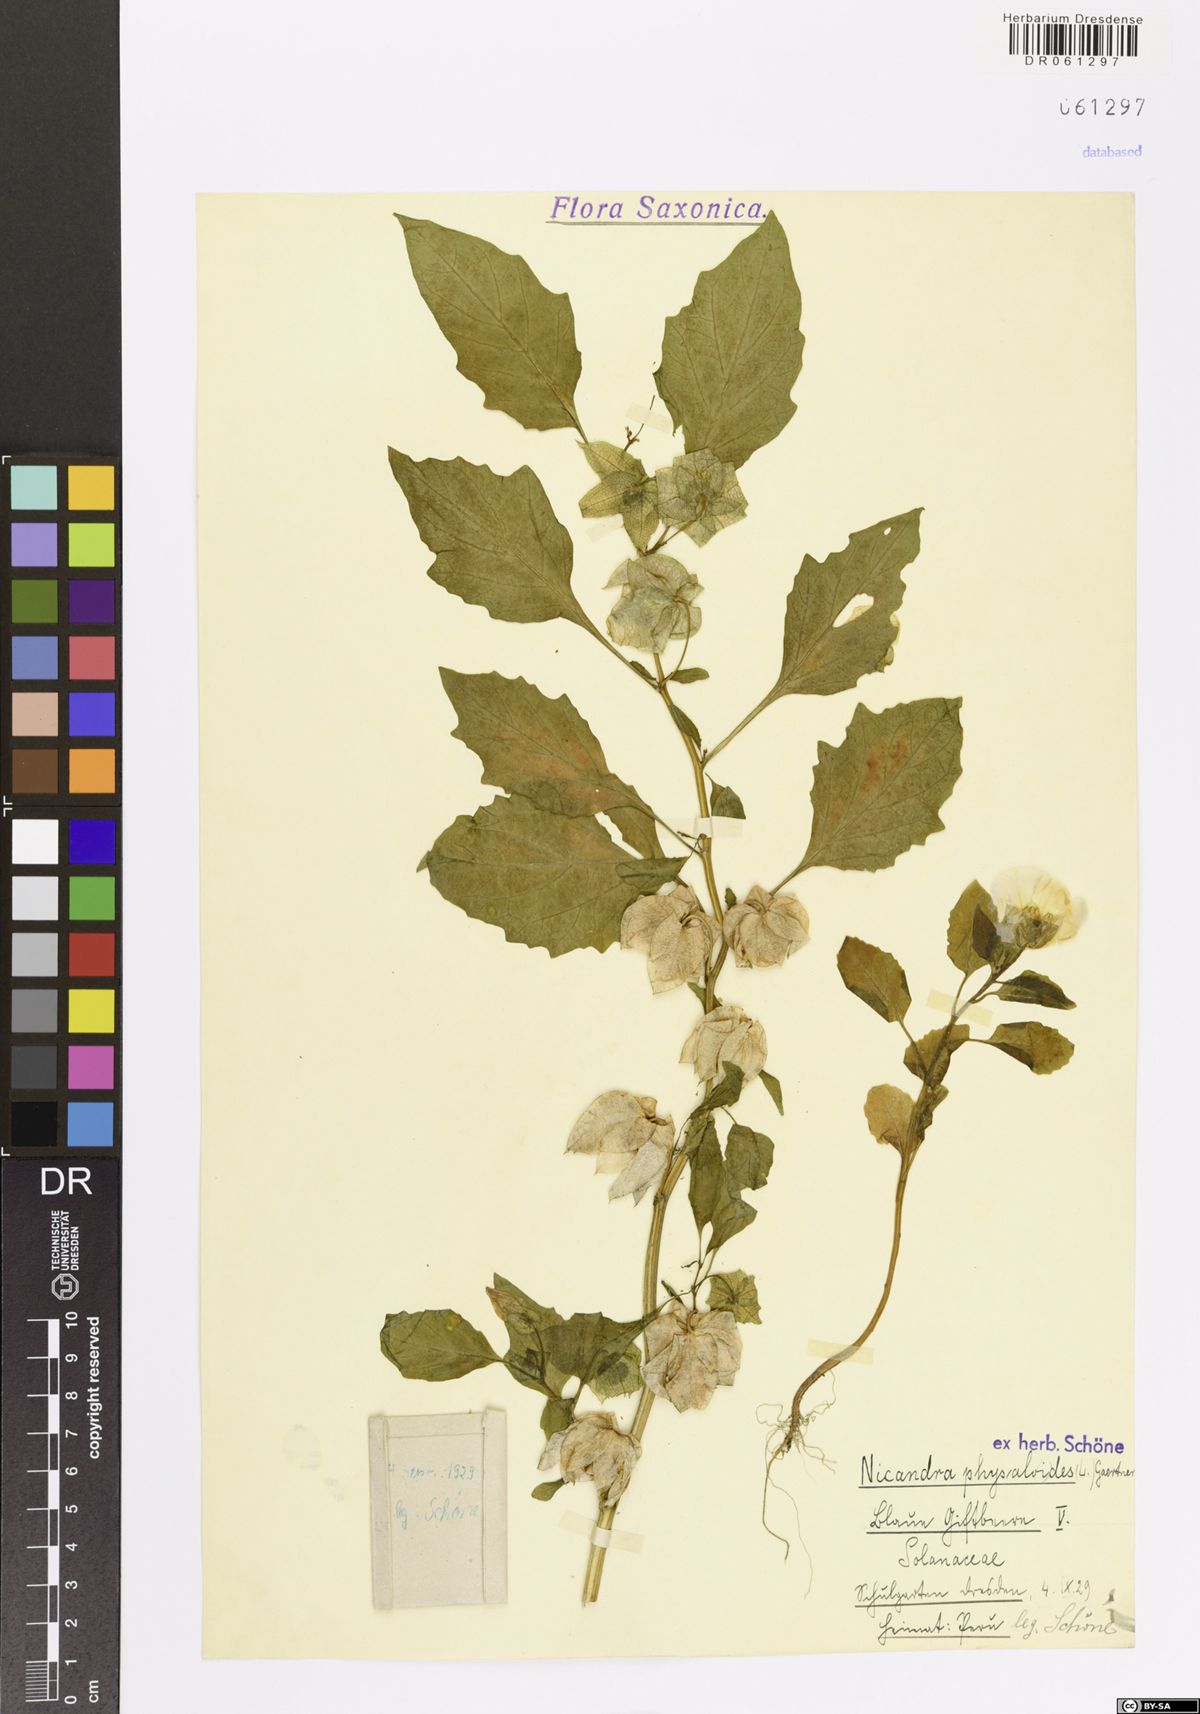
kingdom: Plantae
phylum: Tracheophyta
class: Magnoliopsida
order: Solanales
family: Solanaceae
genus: Nicandra
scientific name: Nicandra physalodes
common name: Apple-of-peru
